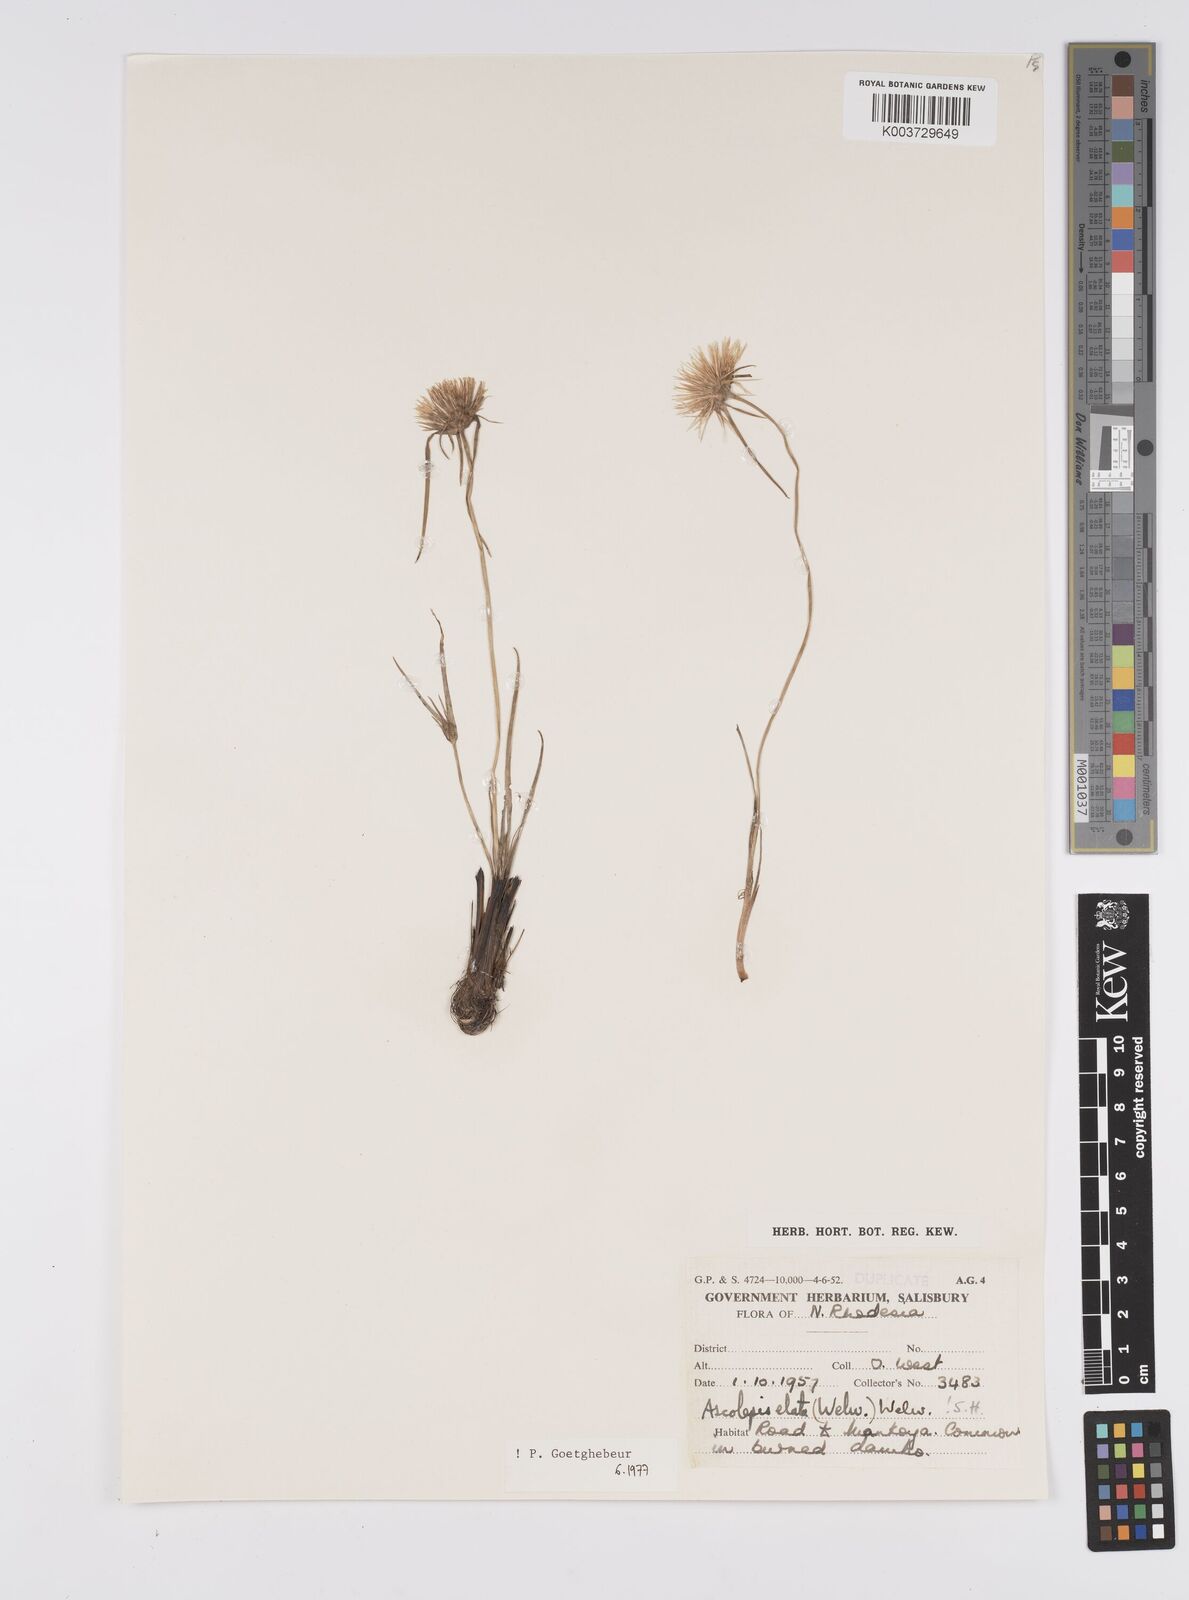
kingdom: Plantae
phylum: Tracheophyta
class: Liliopsida
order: Poales
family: Cyperaceae
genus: Cyperus
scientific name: Cyperus
